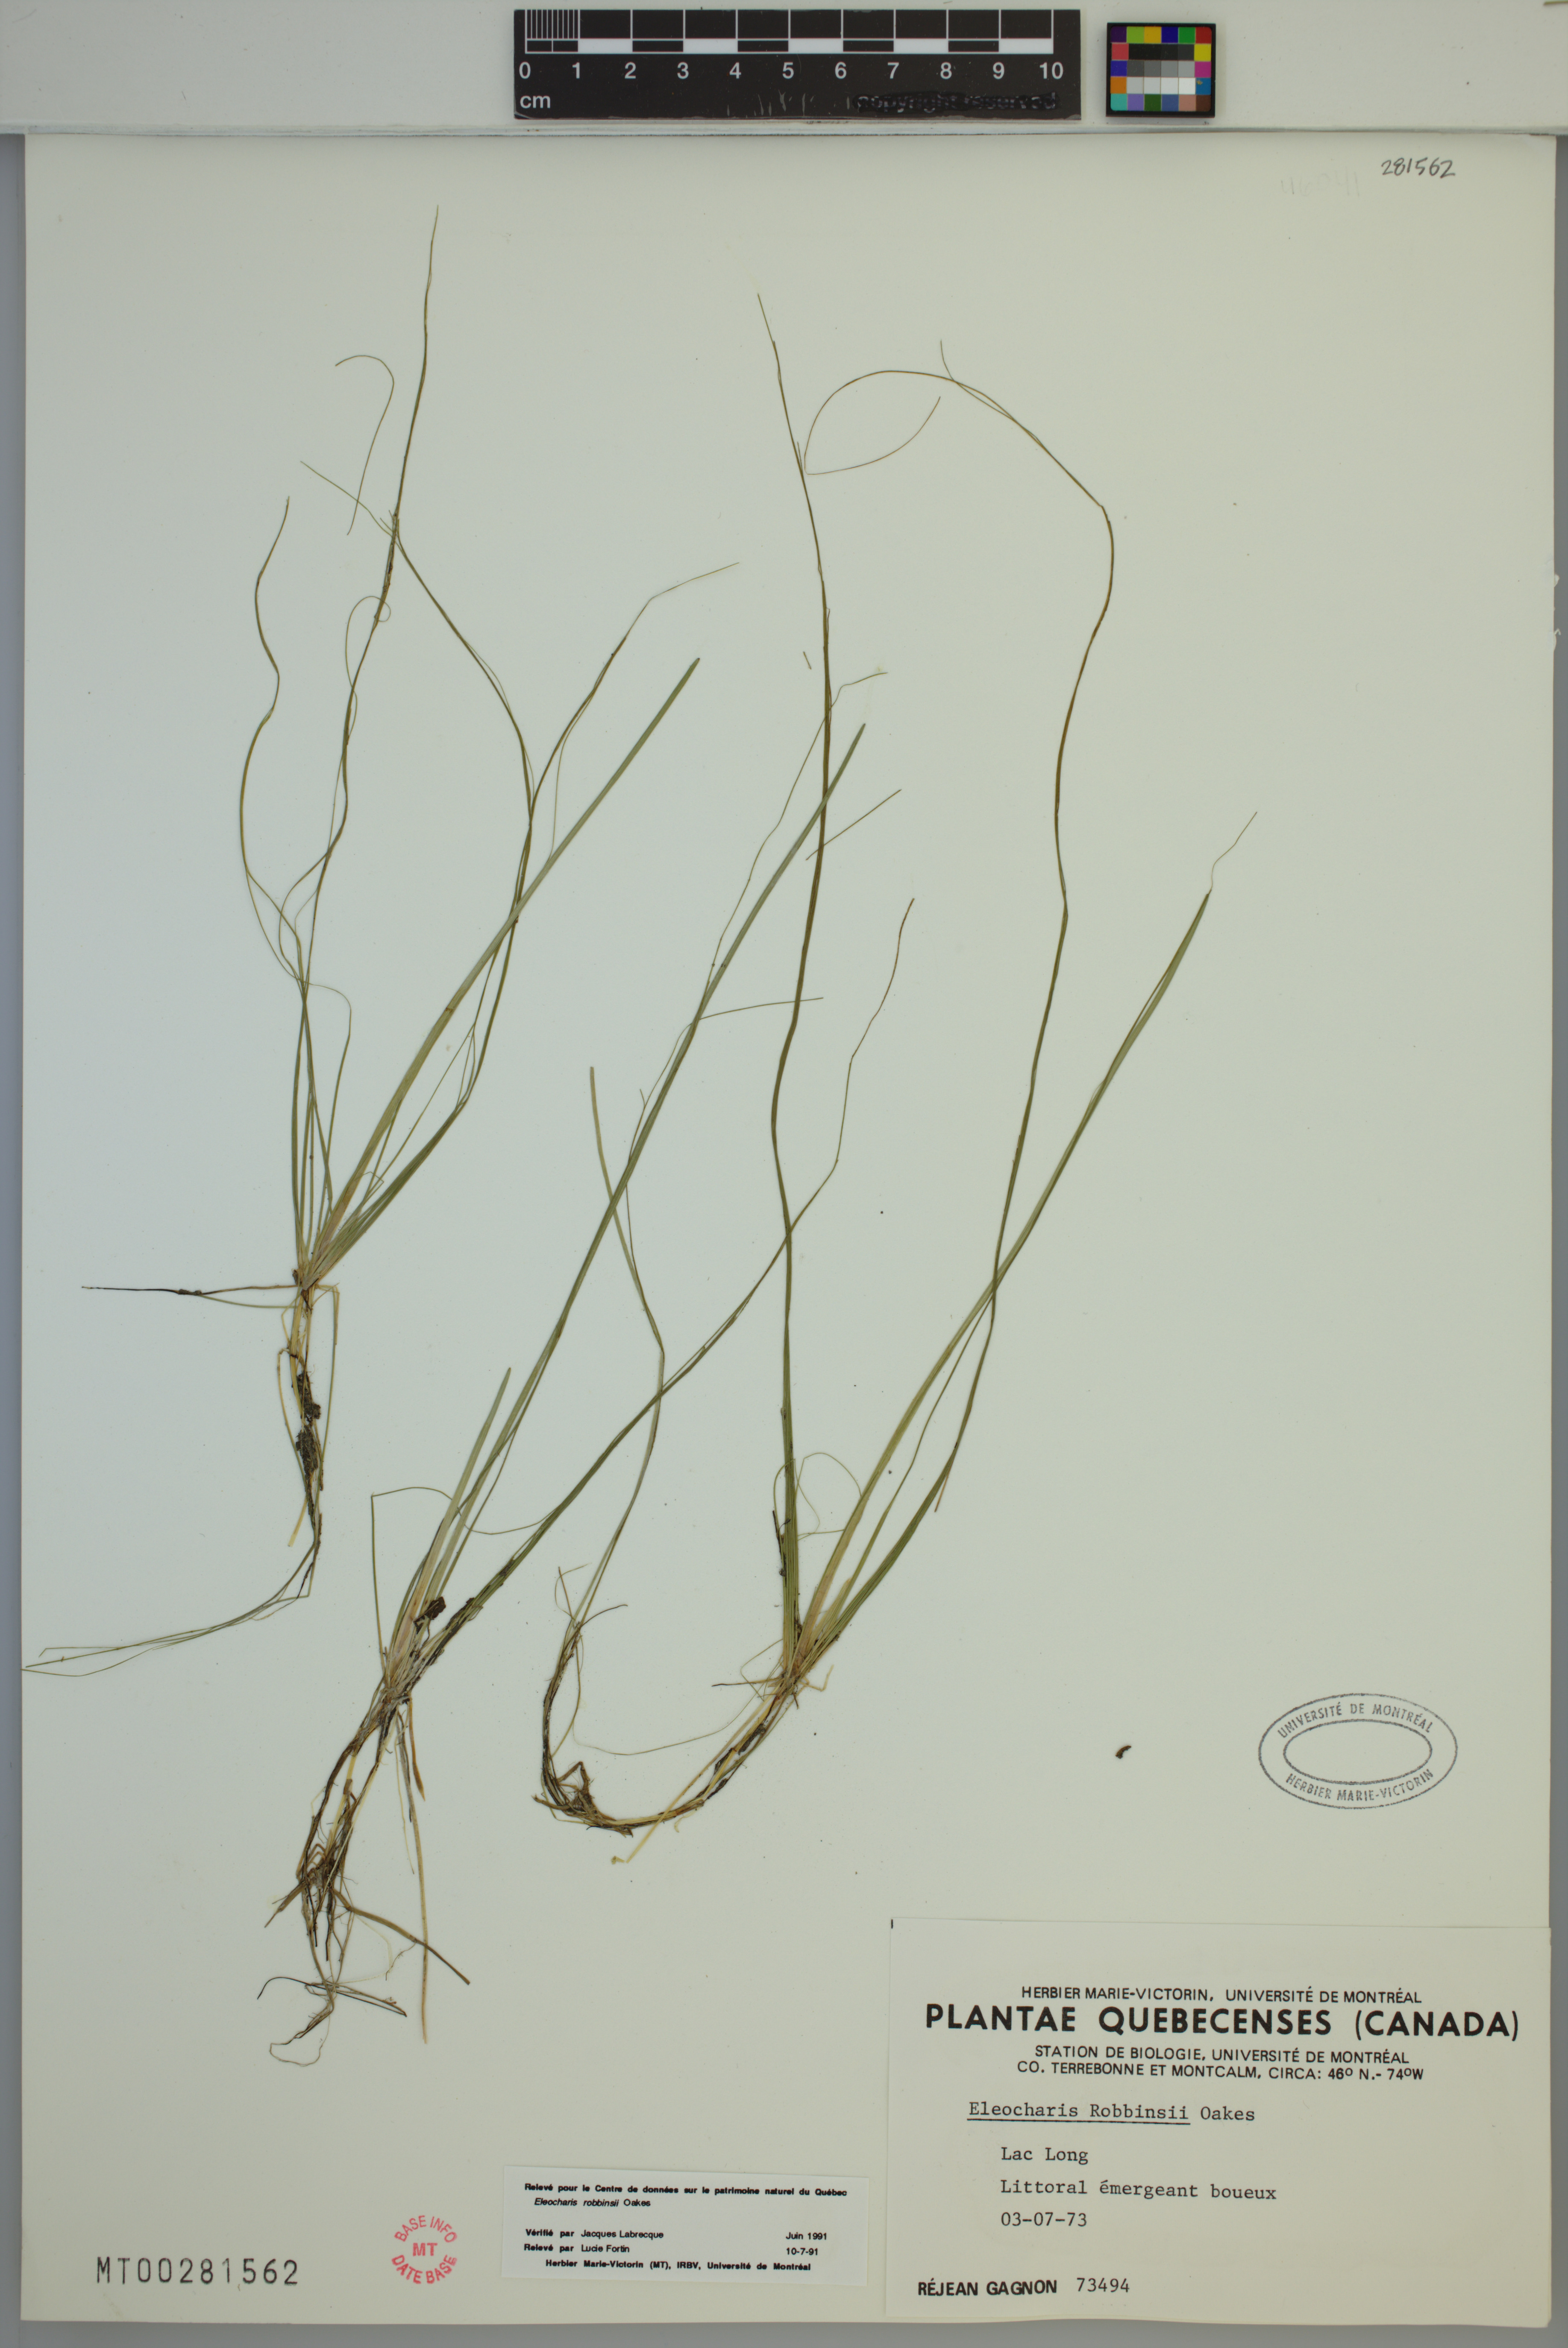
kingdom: Plantae
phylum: Tracheophyta
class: Liliopsida
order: Poales
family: Cyperaceae
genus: Eleocharis
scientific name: Eleocharis robbinsii
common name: Robbins' spikerush
